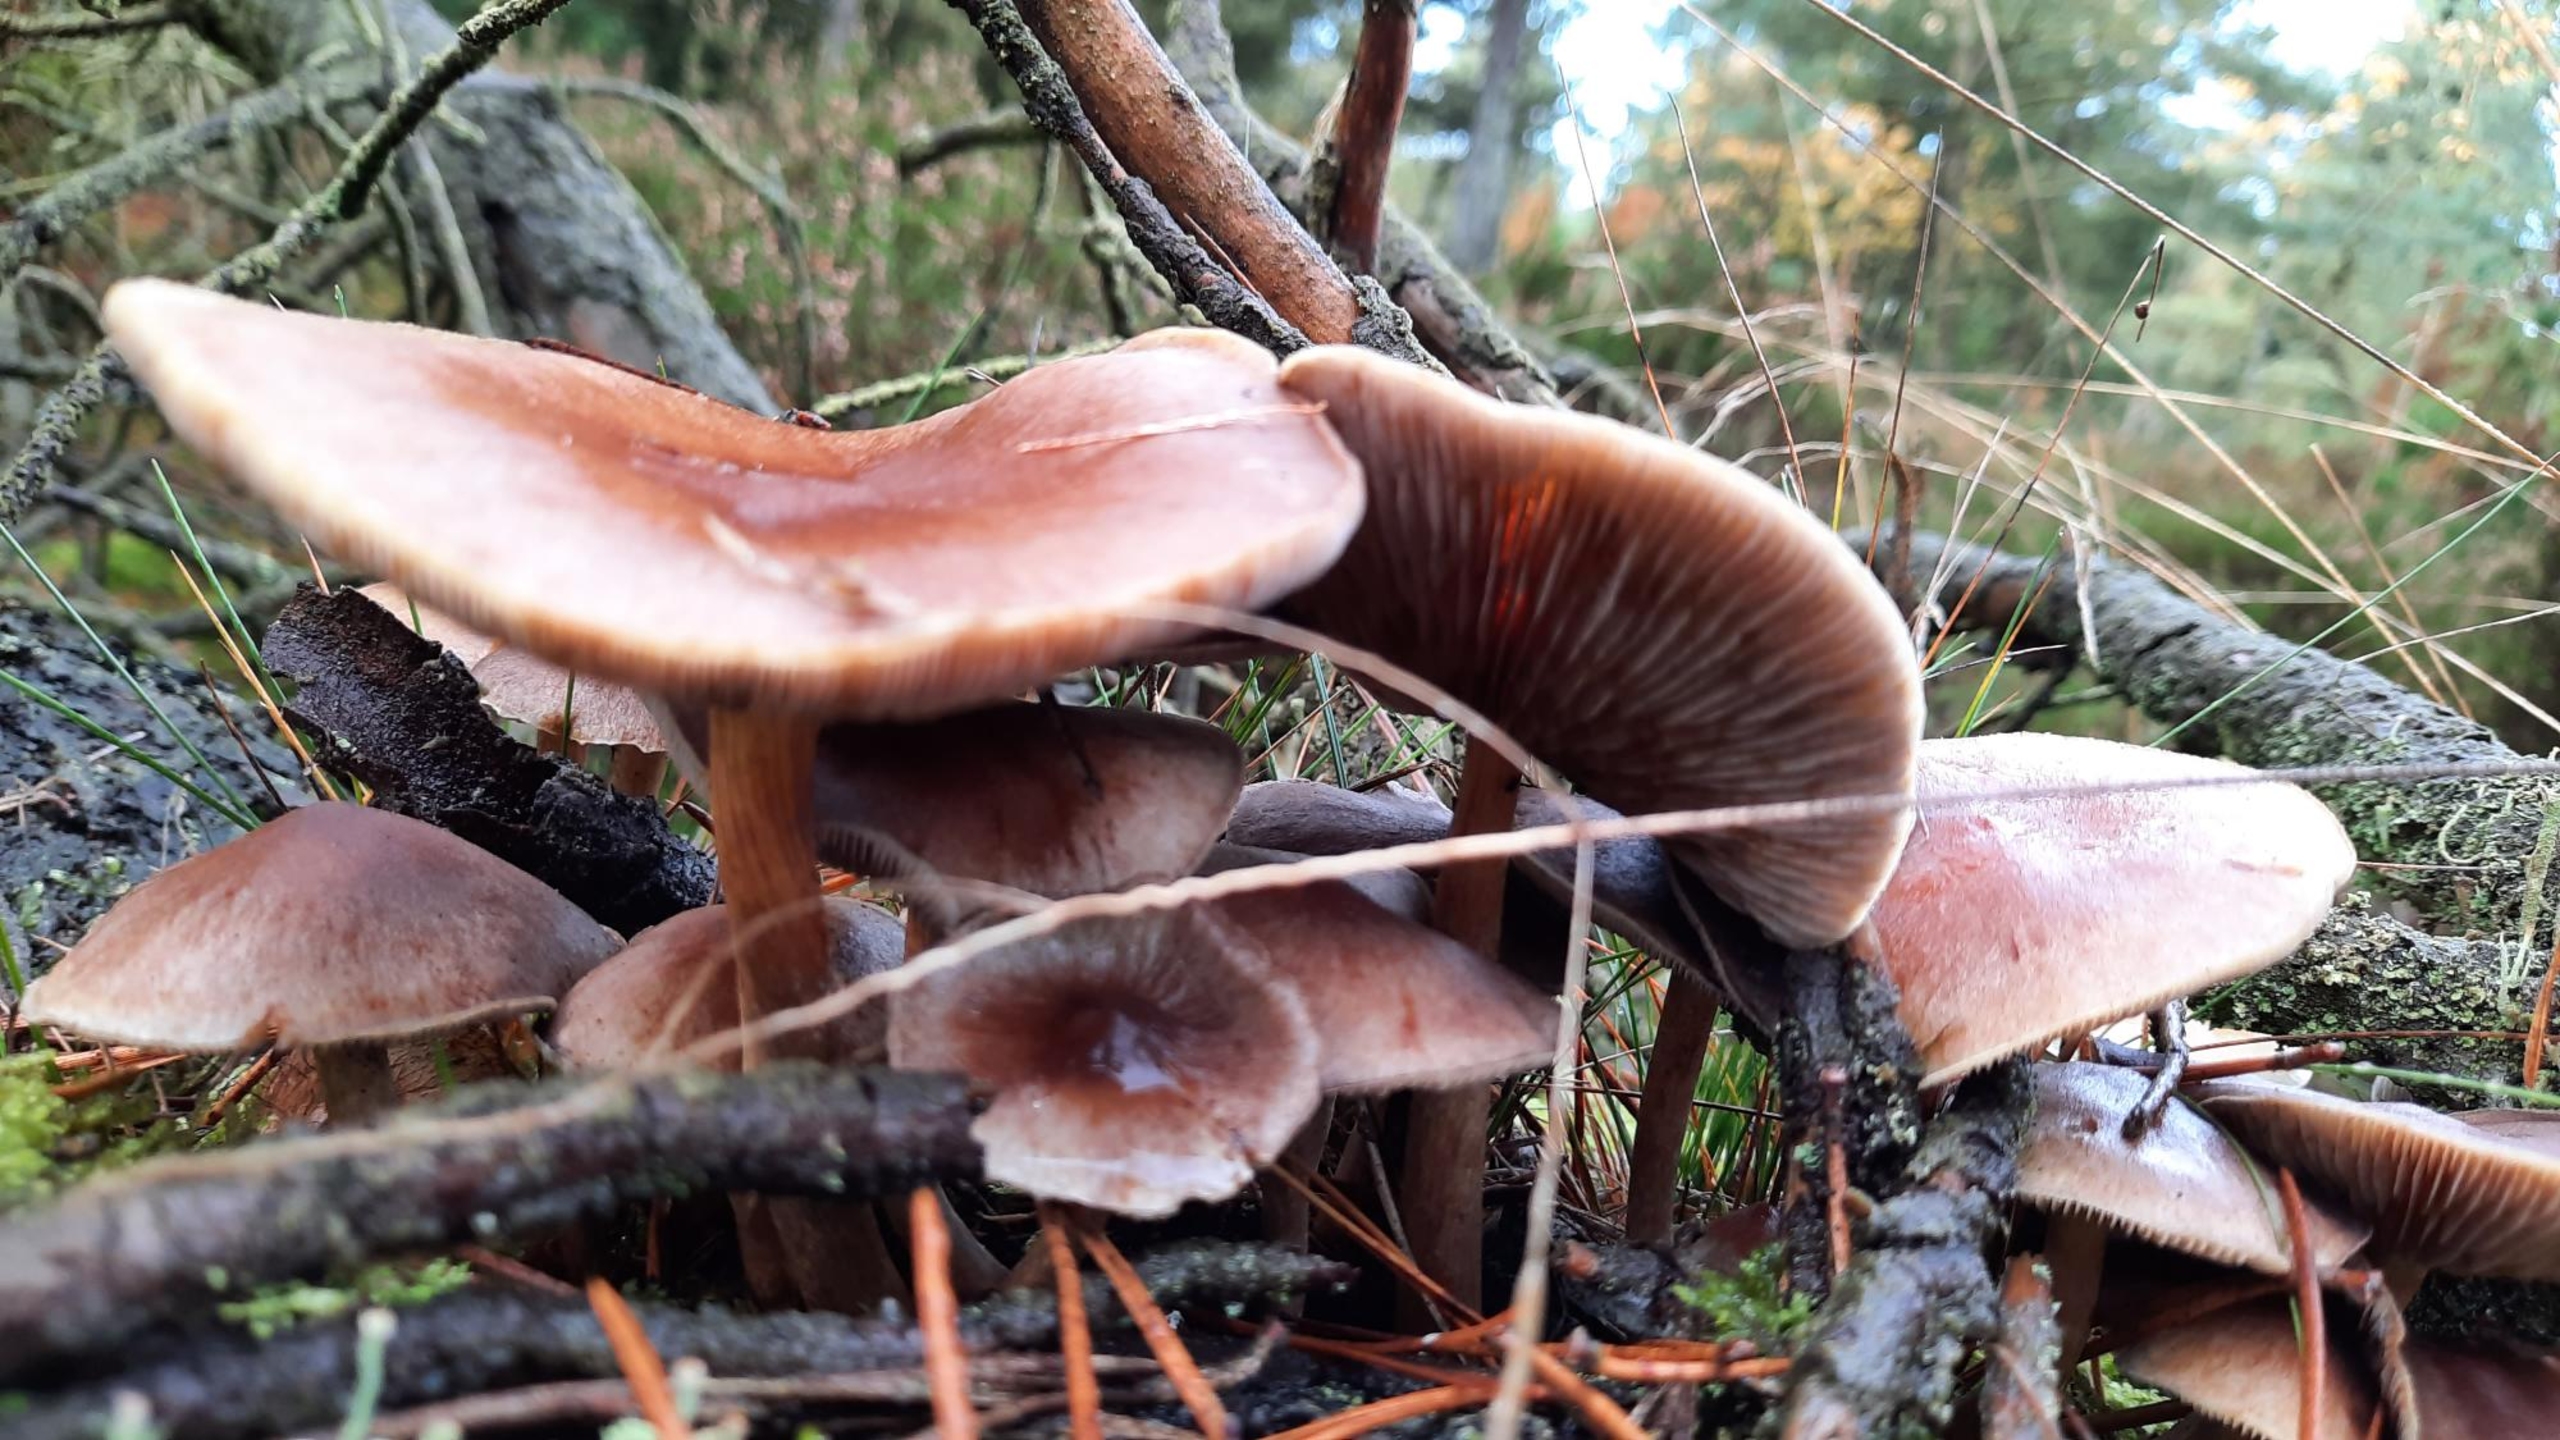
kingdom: Fungi
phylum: Basidiomycota
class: Agaricomycetes
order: Agaricales
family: Strophariaceae
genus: Hypholoma
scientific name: Hypholoma capnoides
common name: Gran-svovlhat
